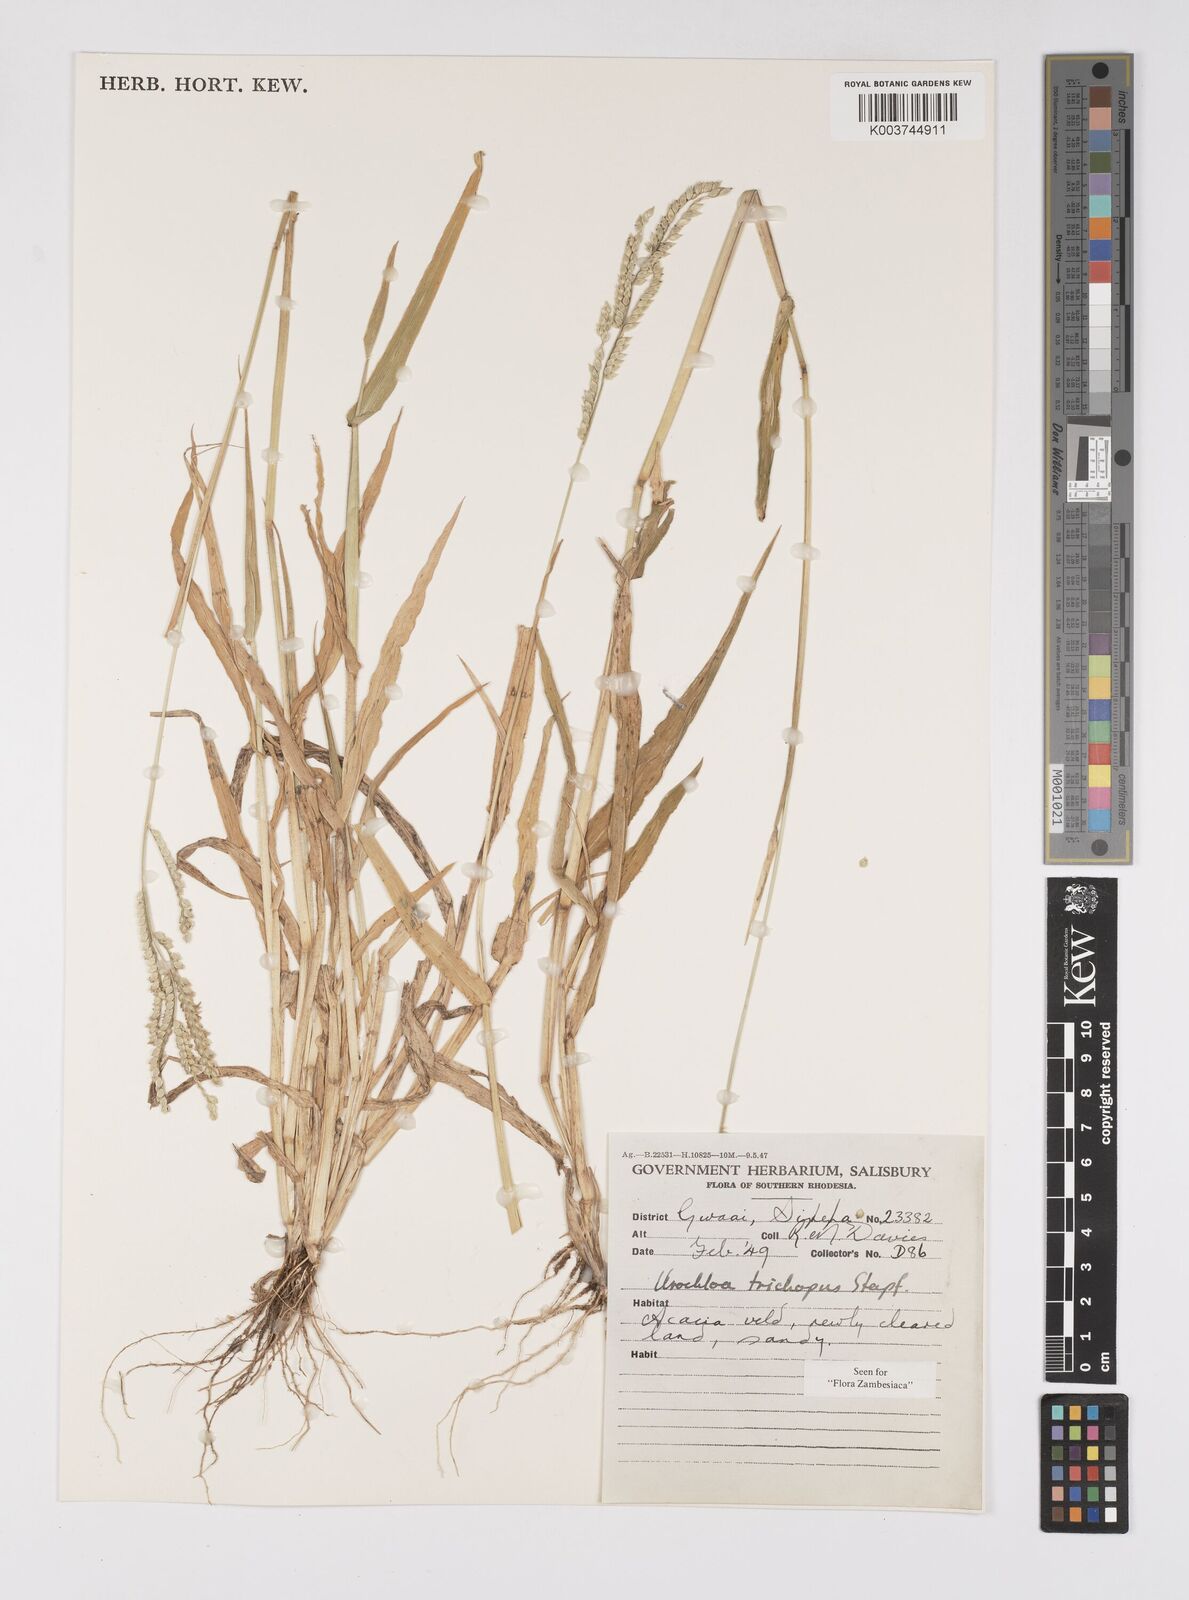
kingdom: Plantae
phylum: Tracheophyta
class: Liliopsida
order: Poales
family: Poaceae
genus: Urochloa
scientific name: Urochloa trichopus
